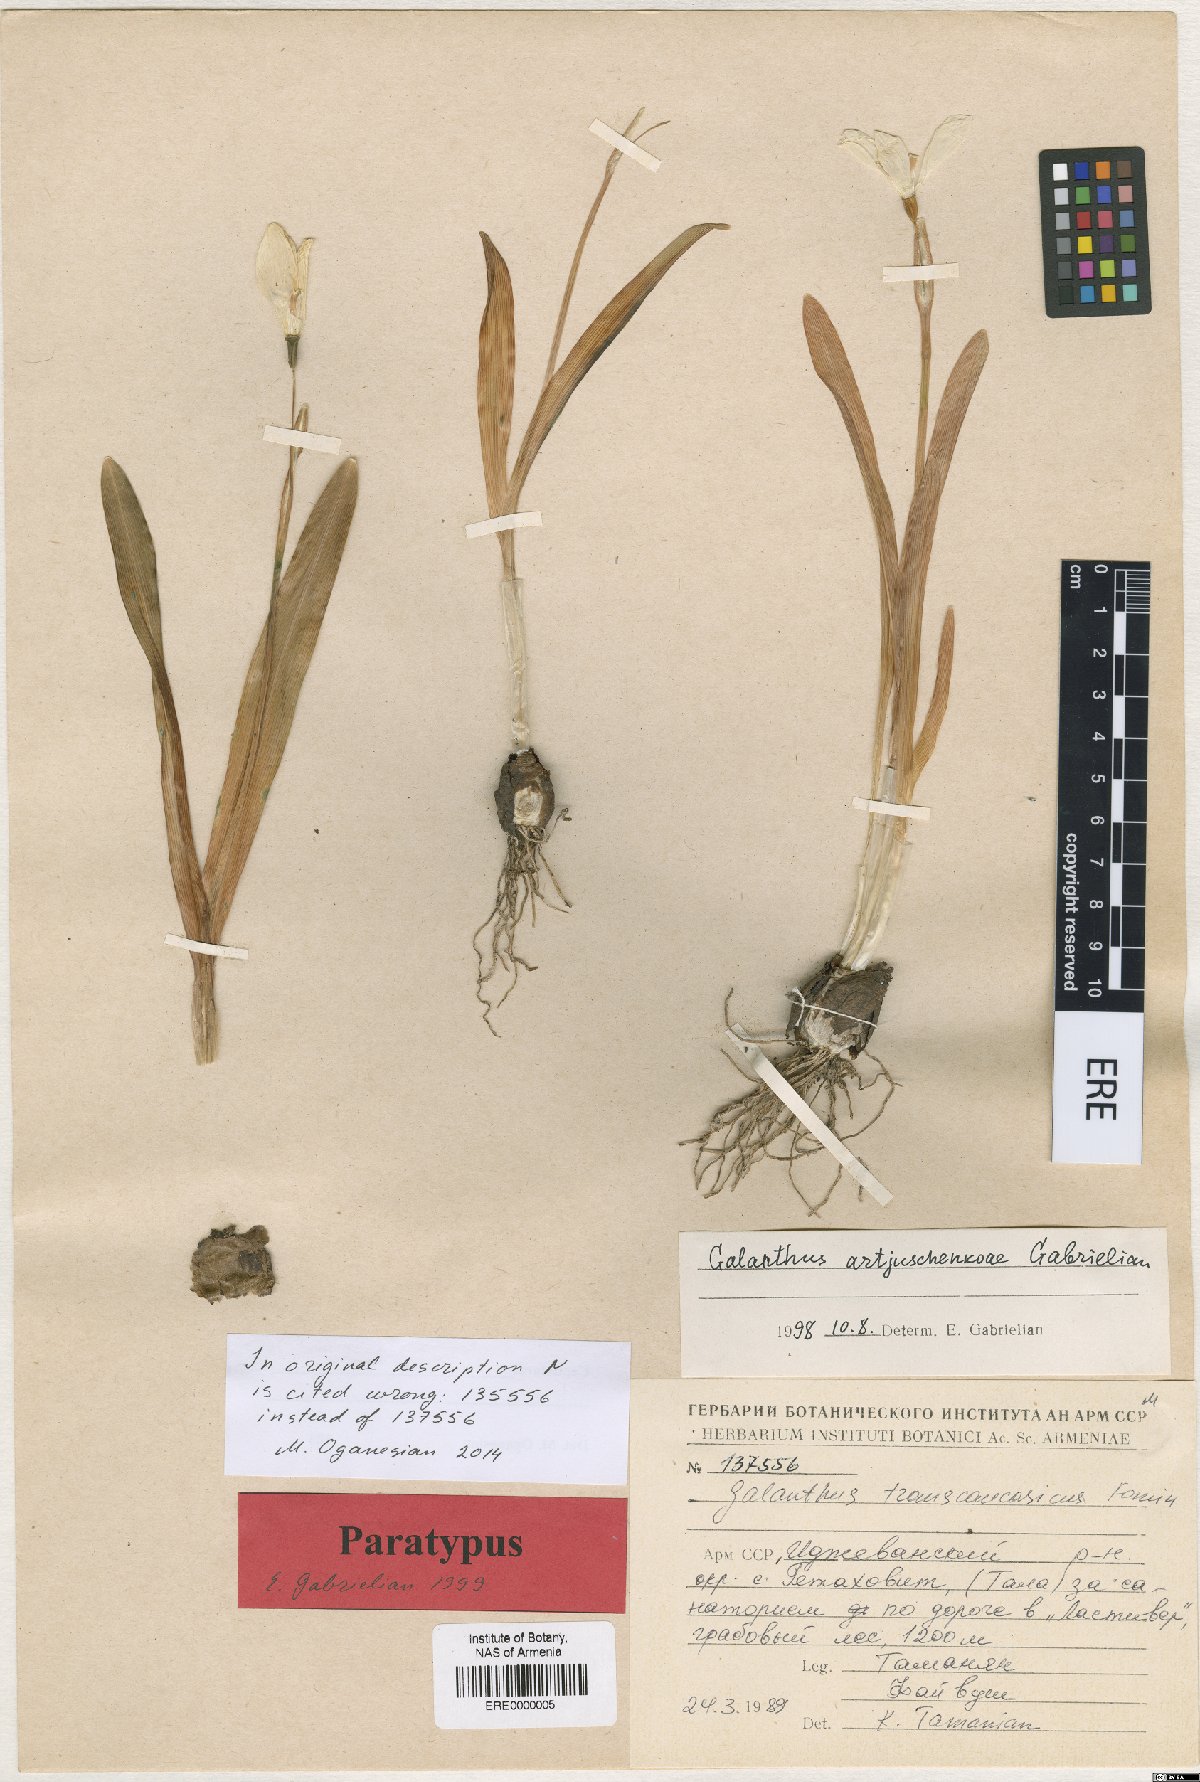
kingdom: Plantae
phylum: Tracheophyta
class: Liliopsida
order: Asparagales
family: Amaryllidaceae
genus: Galanthus
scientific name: Galanthus transcaucasicus
